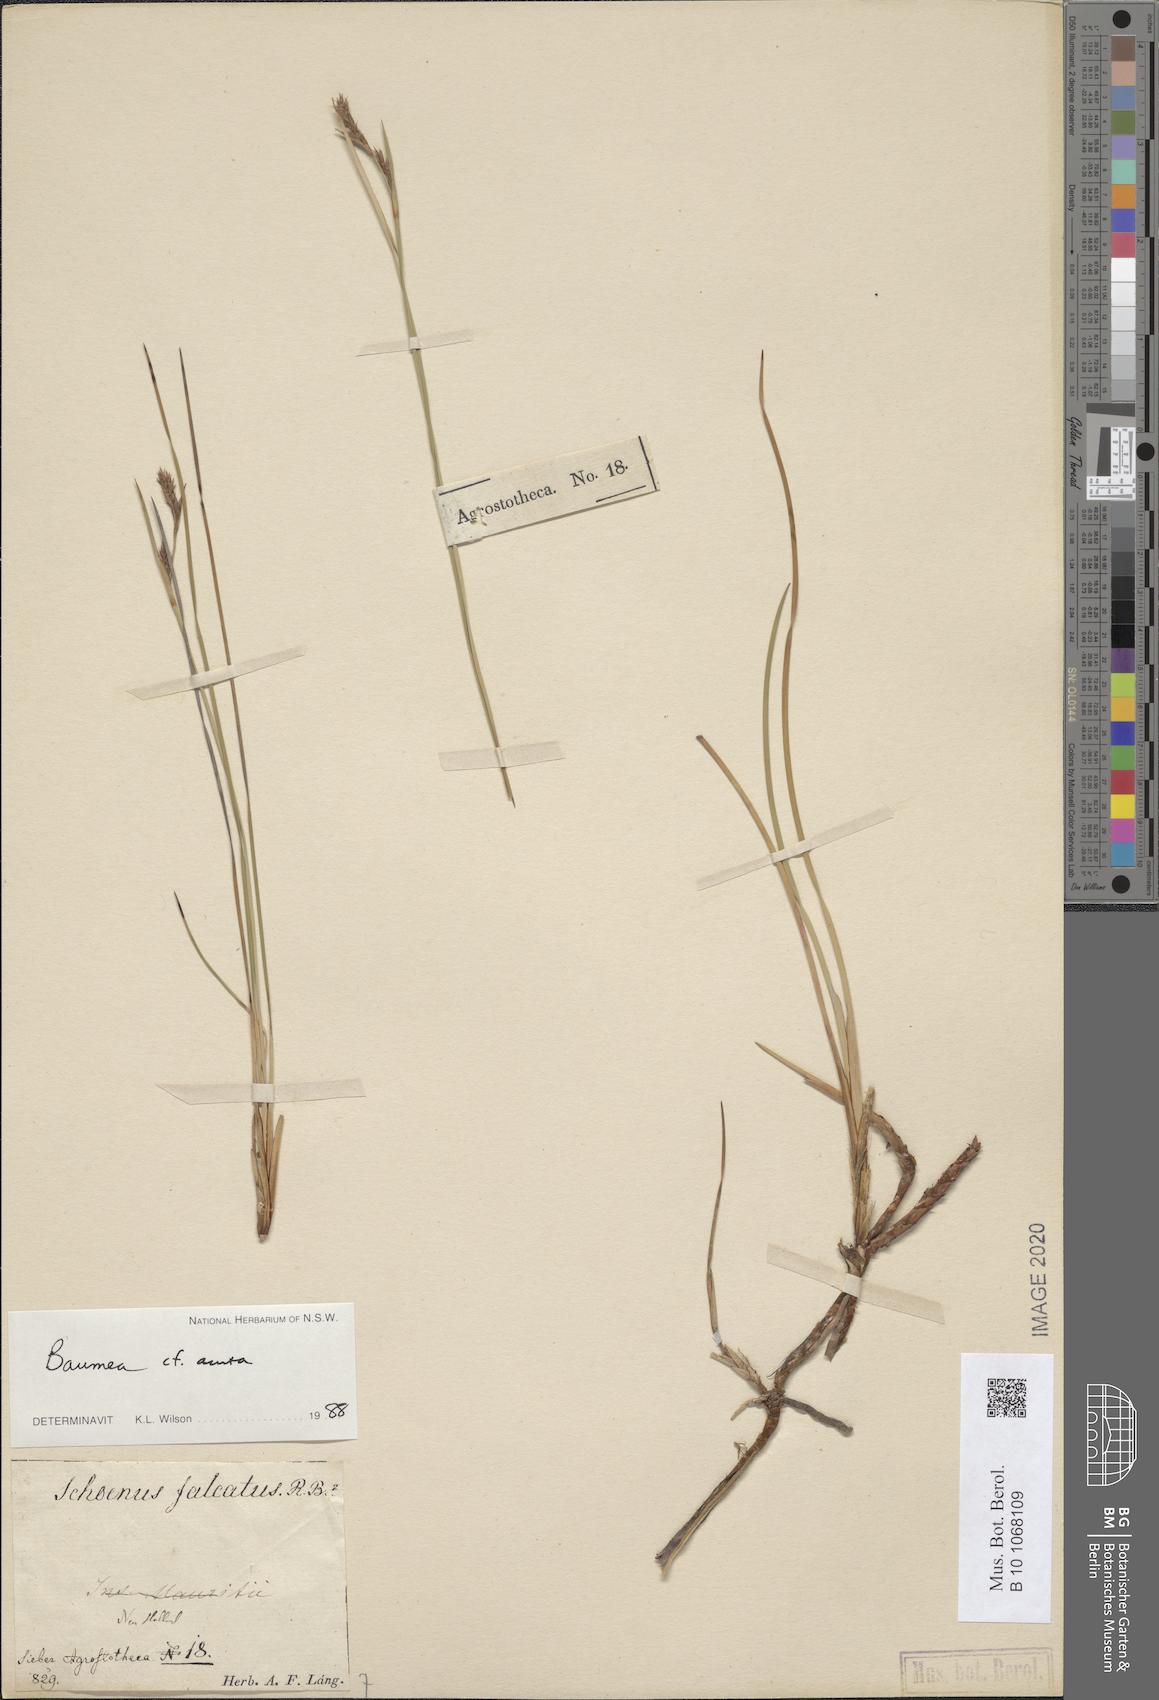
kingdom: Plantae
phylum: Tracheophyta
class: Liliopsida
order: Poales
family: Cyperaceae
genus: Machaerina
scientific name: Machaerina acuta
